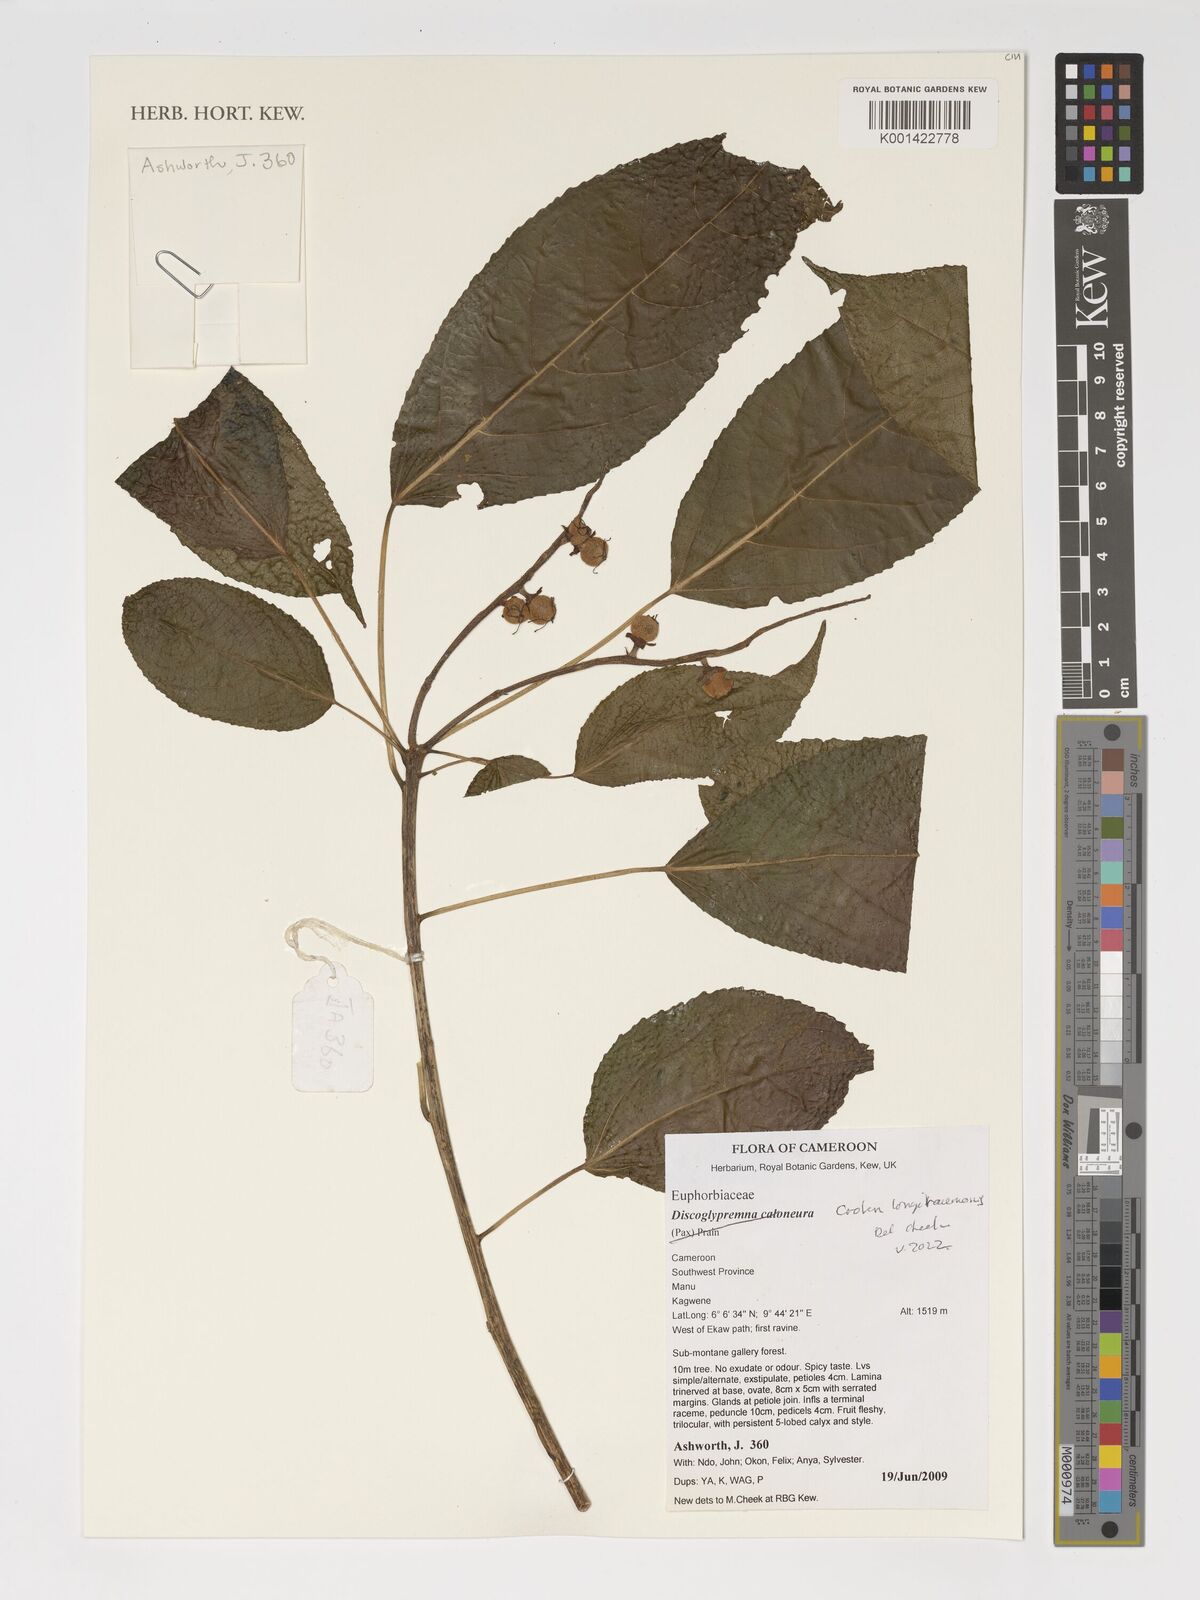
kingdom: Plantae
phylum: Tracheophyta
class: Magnoliopsida
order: Malpighiales
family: Euphorbiaceae
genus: Croton
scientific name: Croton longiracemosus
